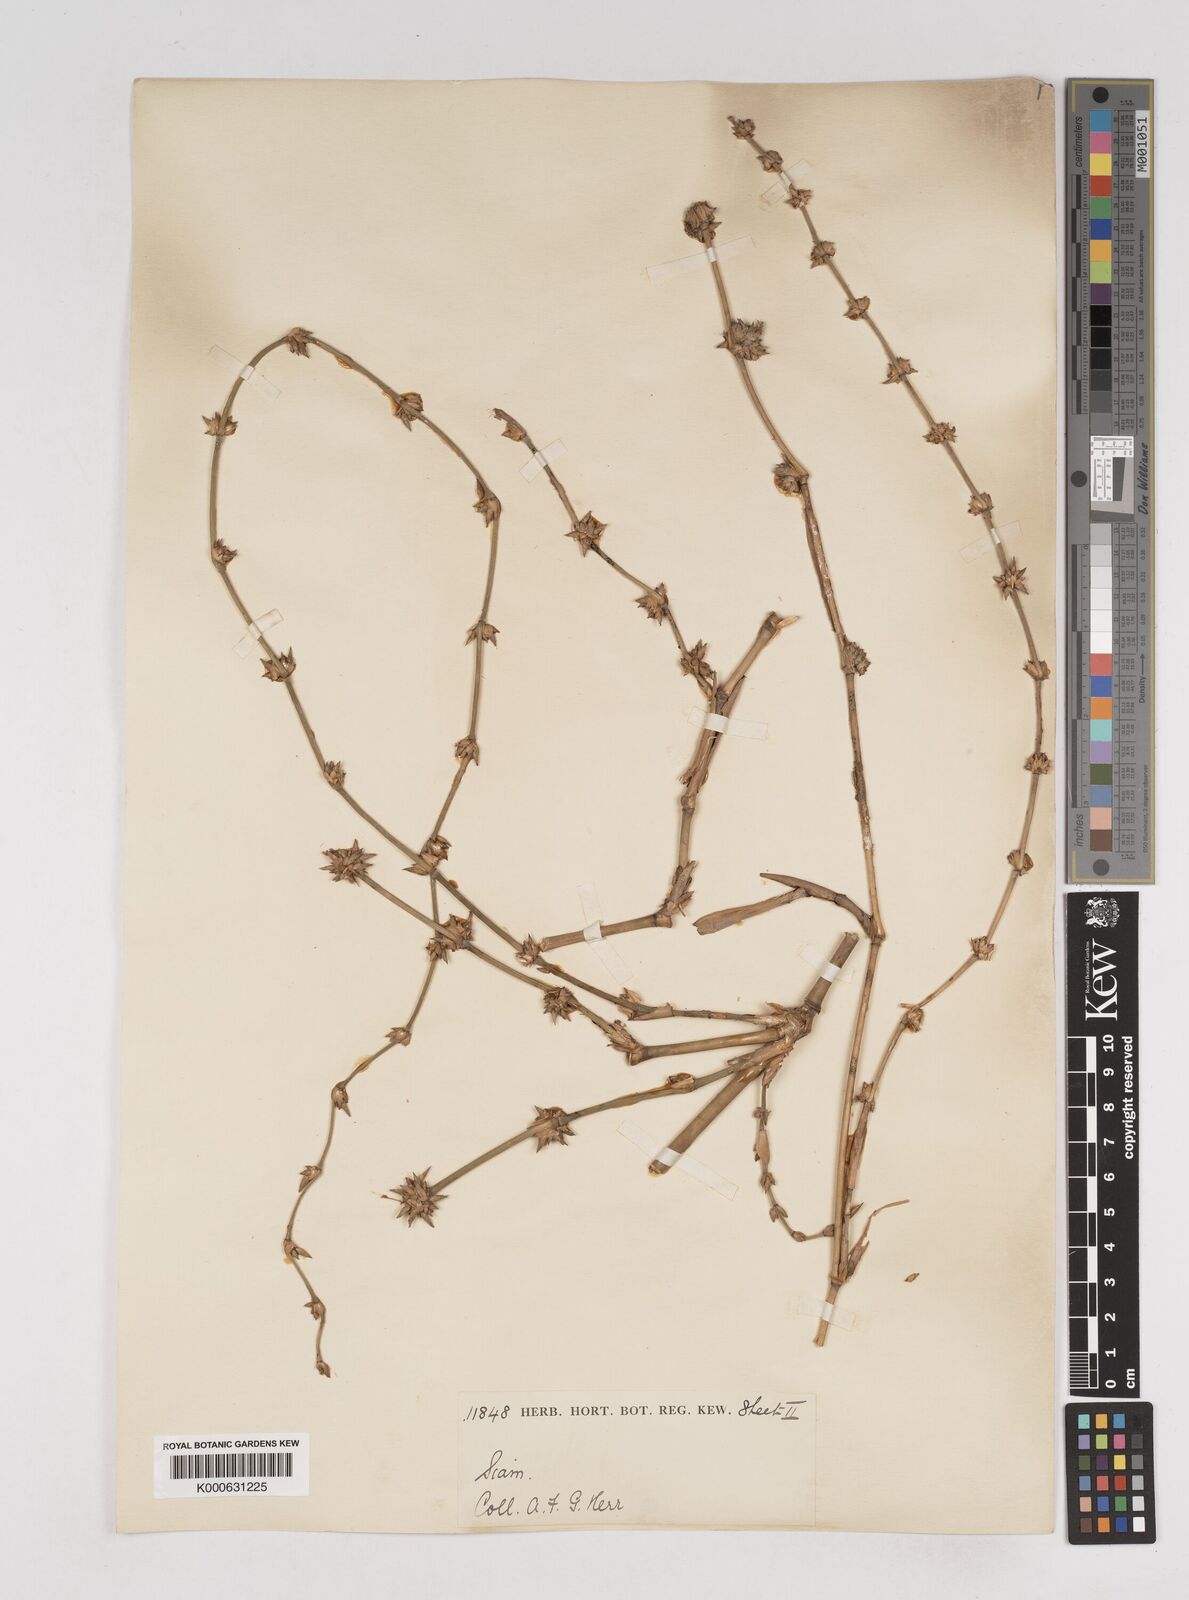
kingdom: Plantae
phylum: Tracheophyta
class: Liliopsida
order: Poales
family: Poaceae
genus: Gigantochloa
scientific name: Gigantochloa
